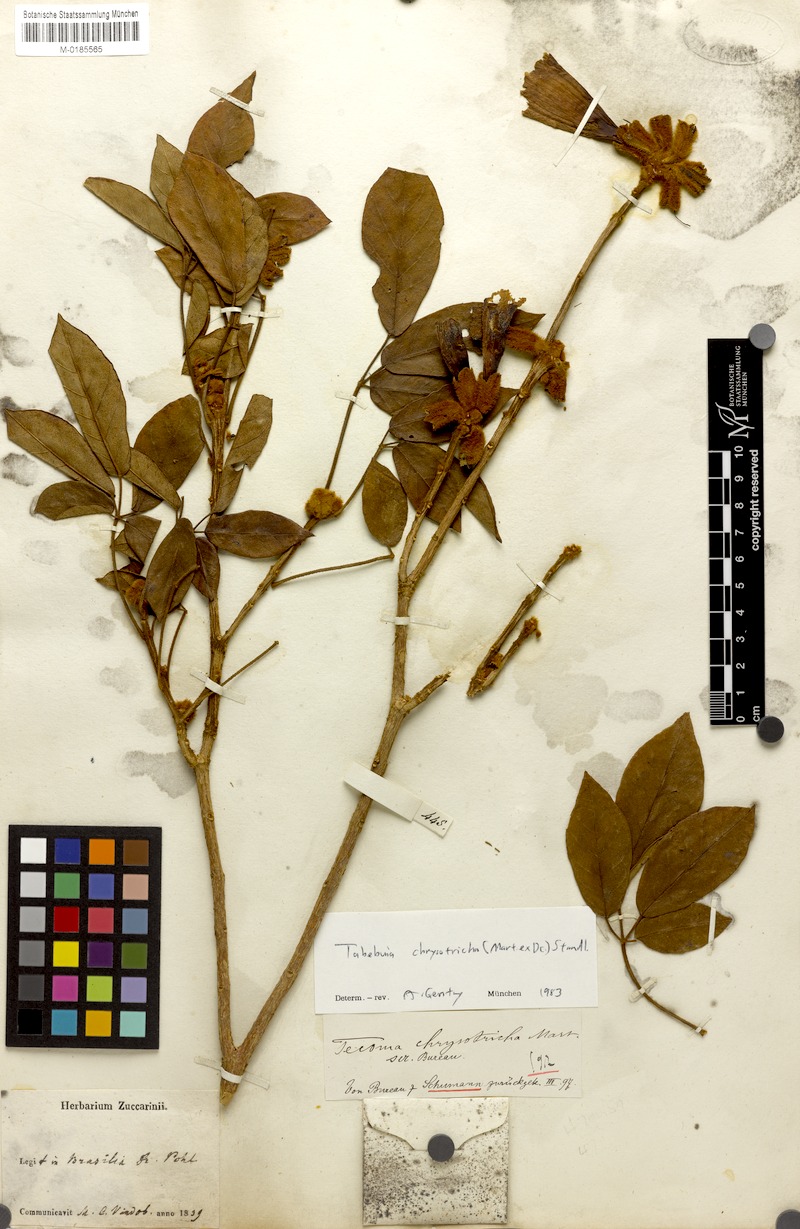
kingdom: Plantae
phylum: Tracheophyta
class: Magnoliopsida
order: Lamiales
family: Bignoniaceae
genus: Handroanthus
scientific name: Handroanthus chrysotrichus
